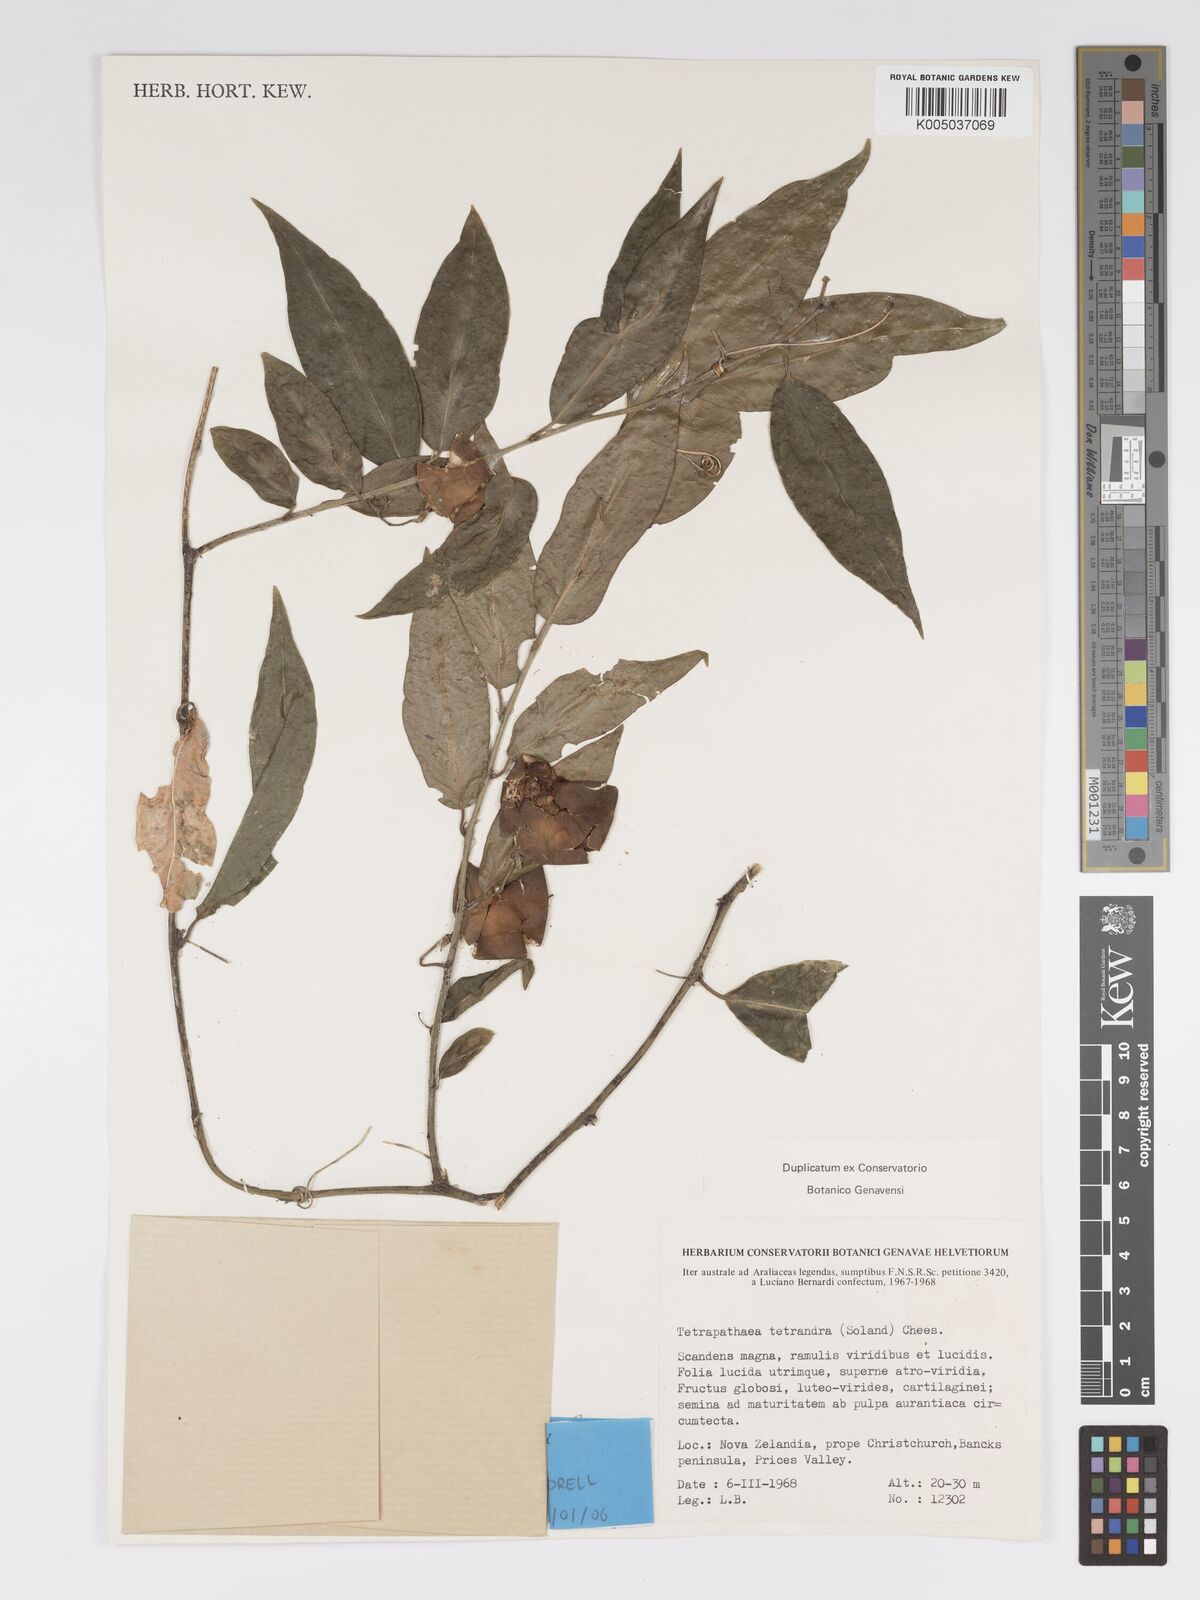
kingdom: Plantae
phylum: Tracheophyta
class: Magnoliopsida
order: Malpighiales
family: Passifloraceae
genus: Passiflora
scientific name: Passiflora tetrandra
